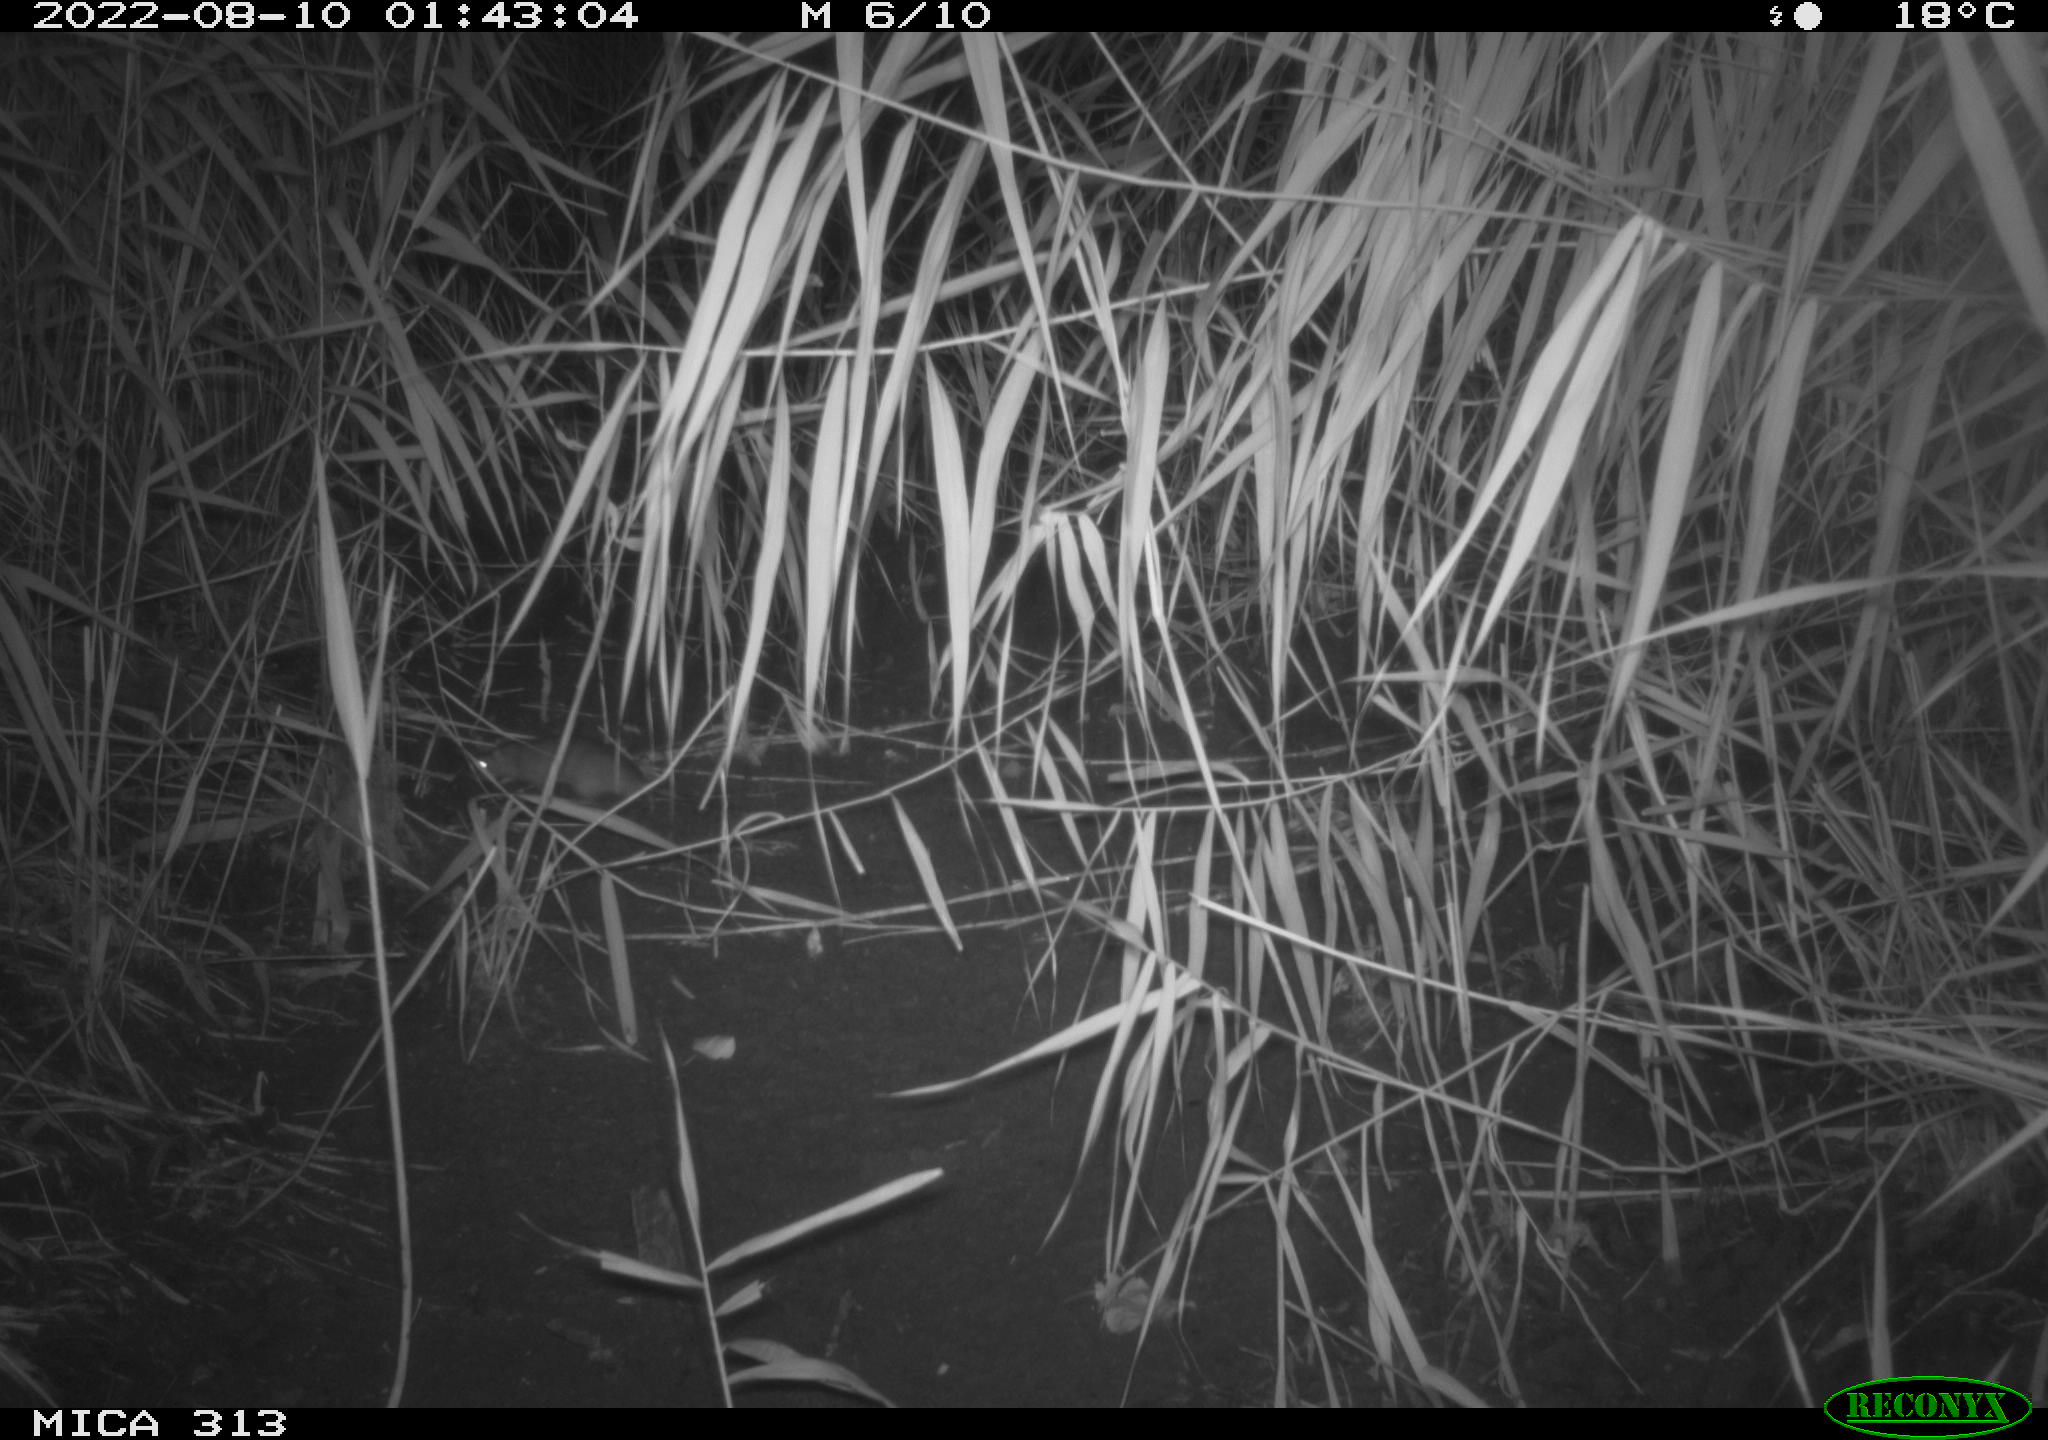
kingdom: Animalia
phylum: Chordata
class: Mammalia
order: Rodentia
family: Muridae
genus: Rattus
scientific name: Rattus norvegicus
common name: Brown rat
